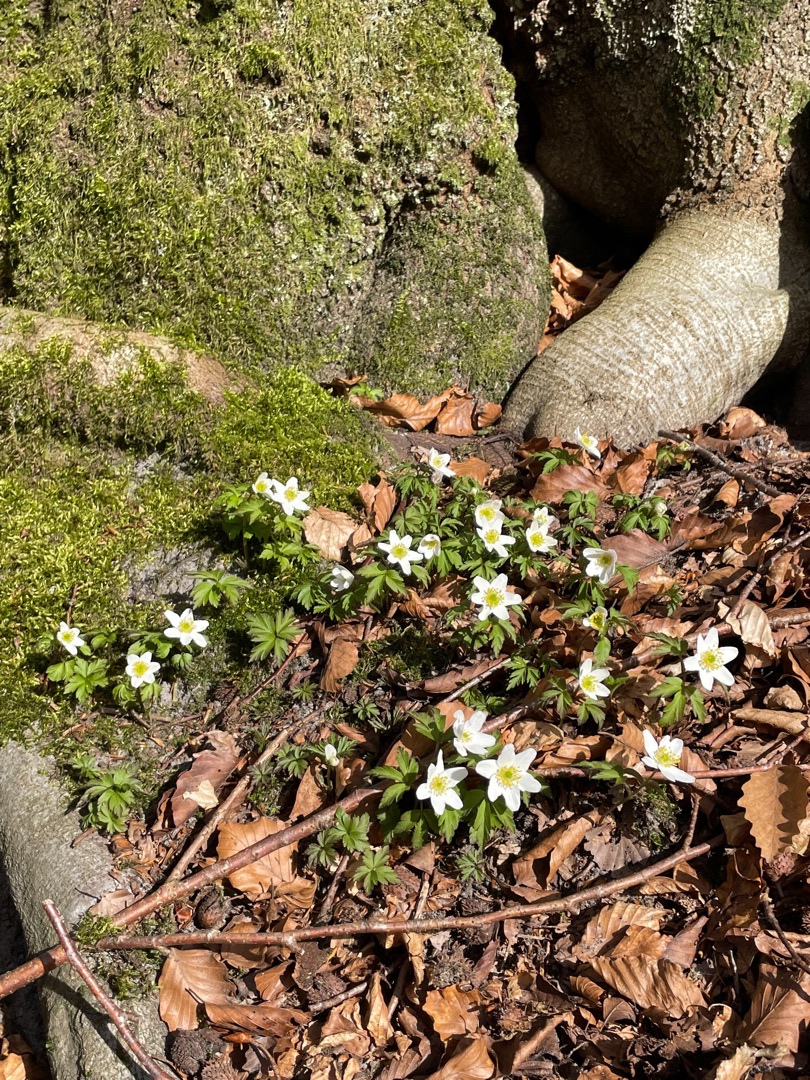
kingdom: Plantae
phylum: Tracheophyta
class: Magnoliopsida
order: Ranunculales
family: Ranunculaceae
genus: Anemone
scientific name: Anemone nemorosa
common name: Hvid anemone
